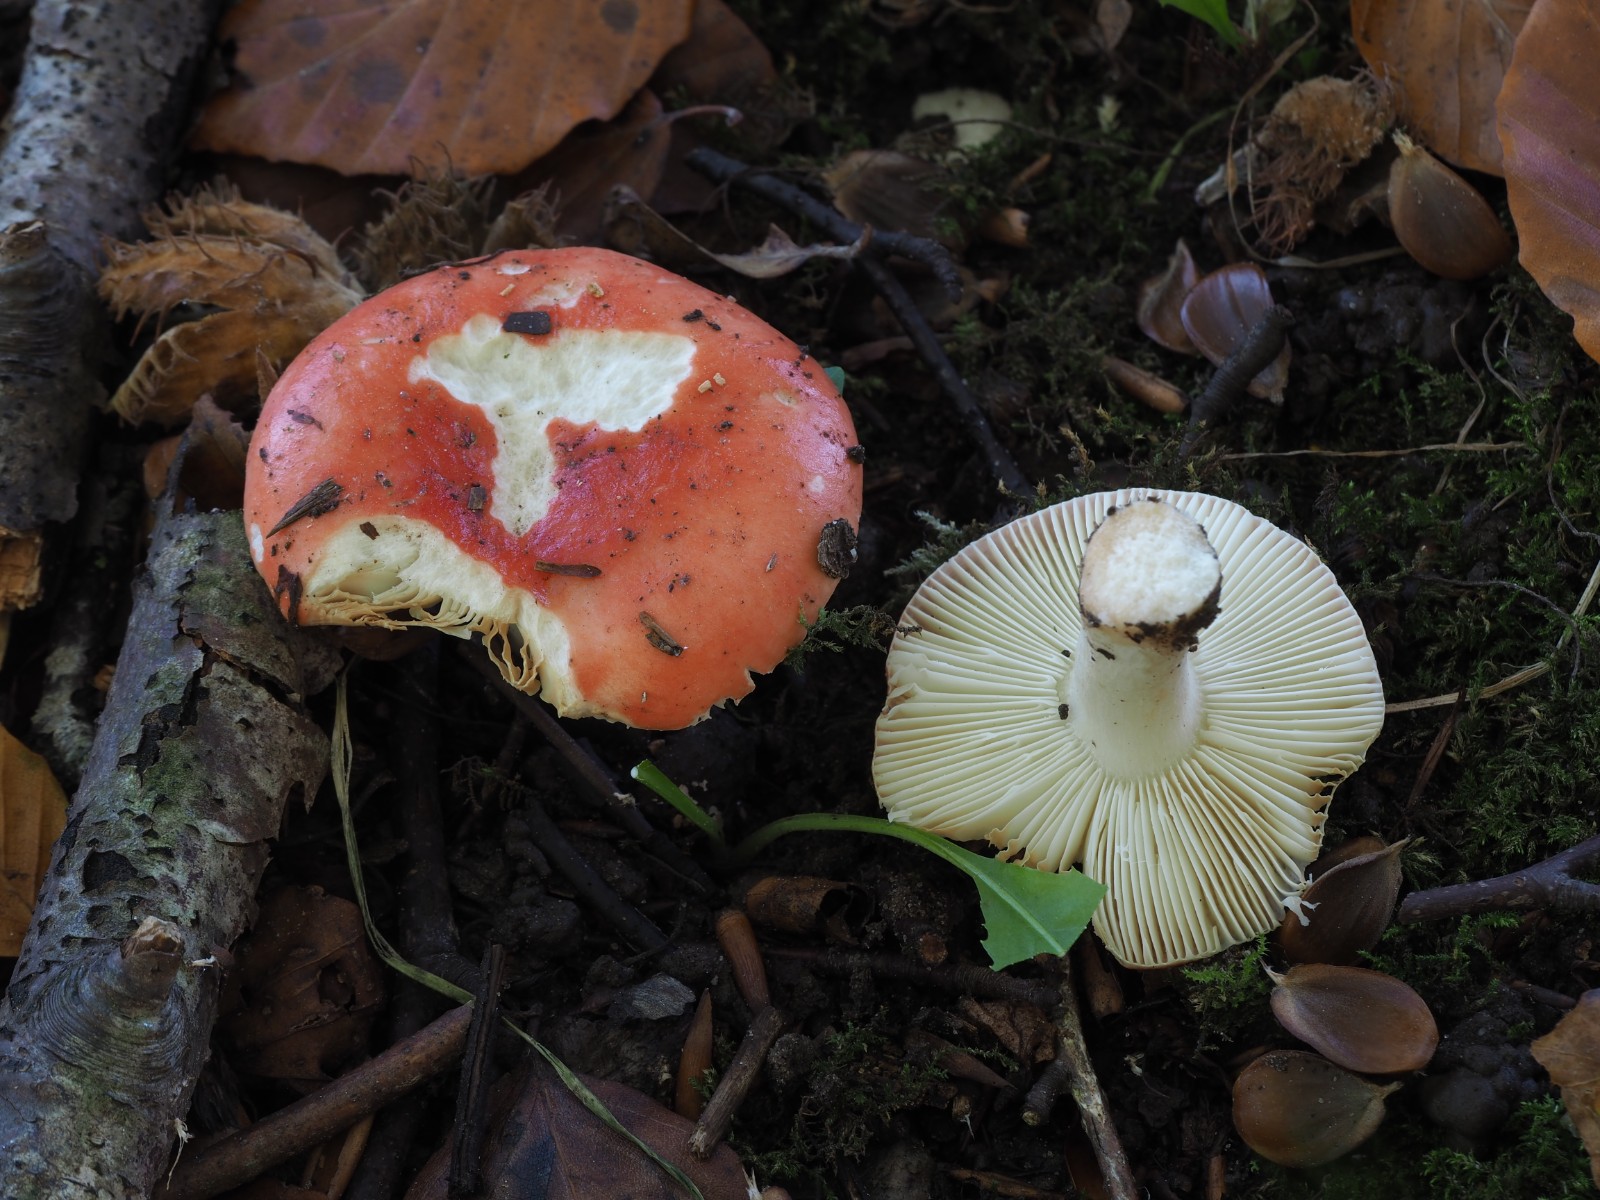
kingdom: Fungi
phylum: Basidiomycota
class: Agaricomycetes
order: Russulales
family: Russulaceae
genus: Russula
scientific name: Russula nobilis
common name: lille gift-skørhat
